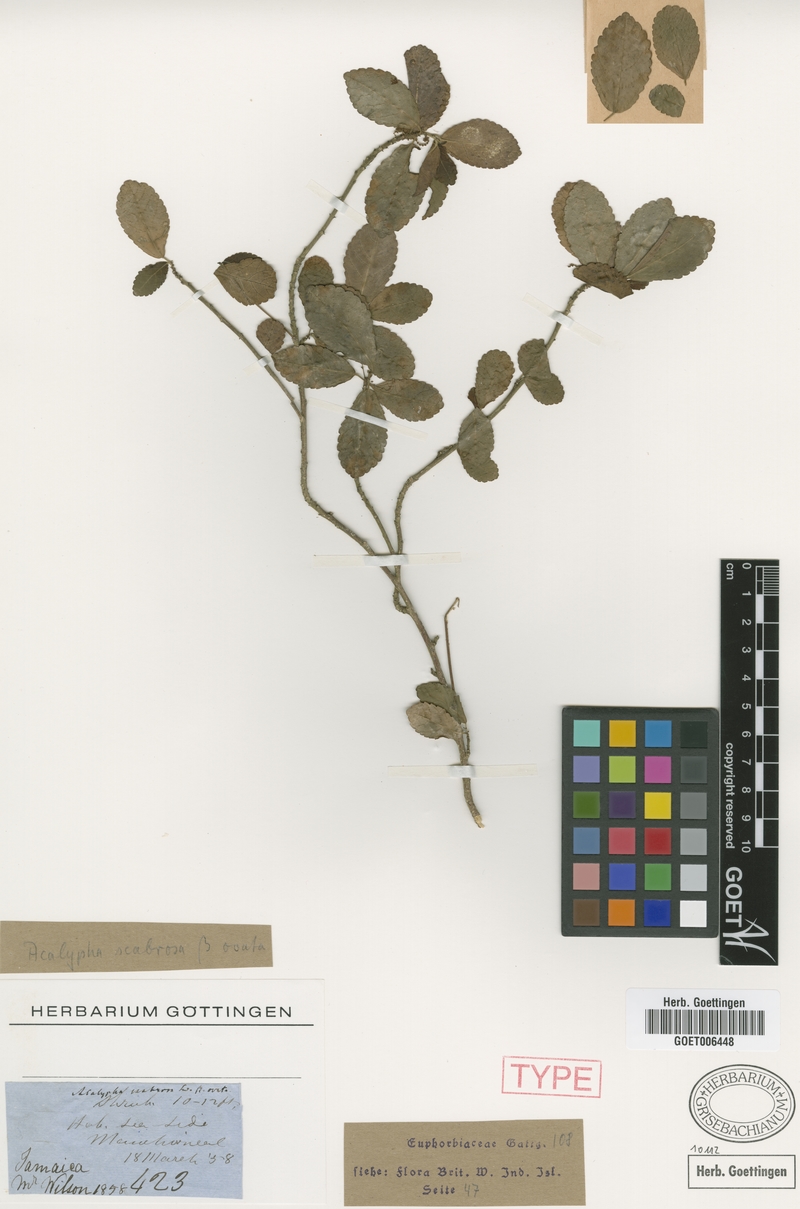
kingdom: Plantae
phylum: Tracheophyta
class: Magnoliopsida
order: Malpighiales
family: Euphorbiaceae
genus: Acalypha
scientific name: Acalypha scabrosa
